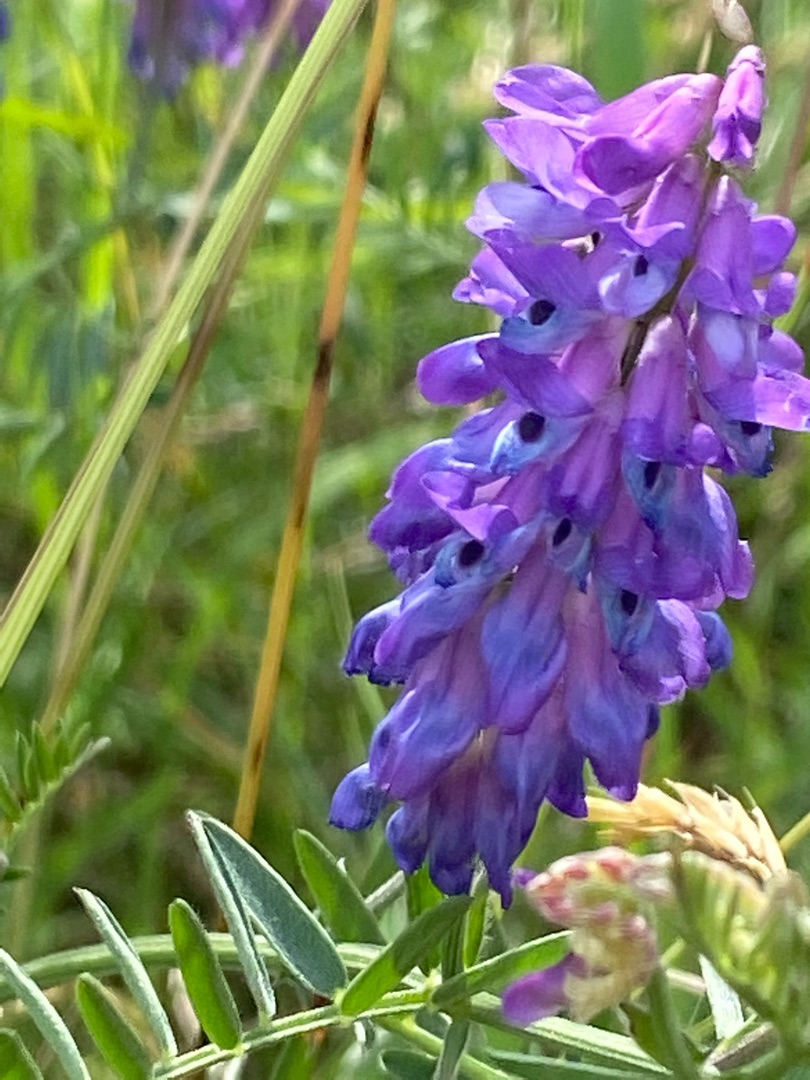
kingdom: Plantae
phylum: Tracheophyta
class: Magnoliopsida
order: Fabales
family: Fabaceae
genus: Vicia
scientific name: Vicia cracca
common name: Muse-vikke
